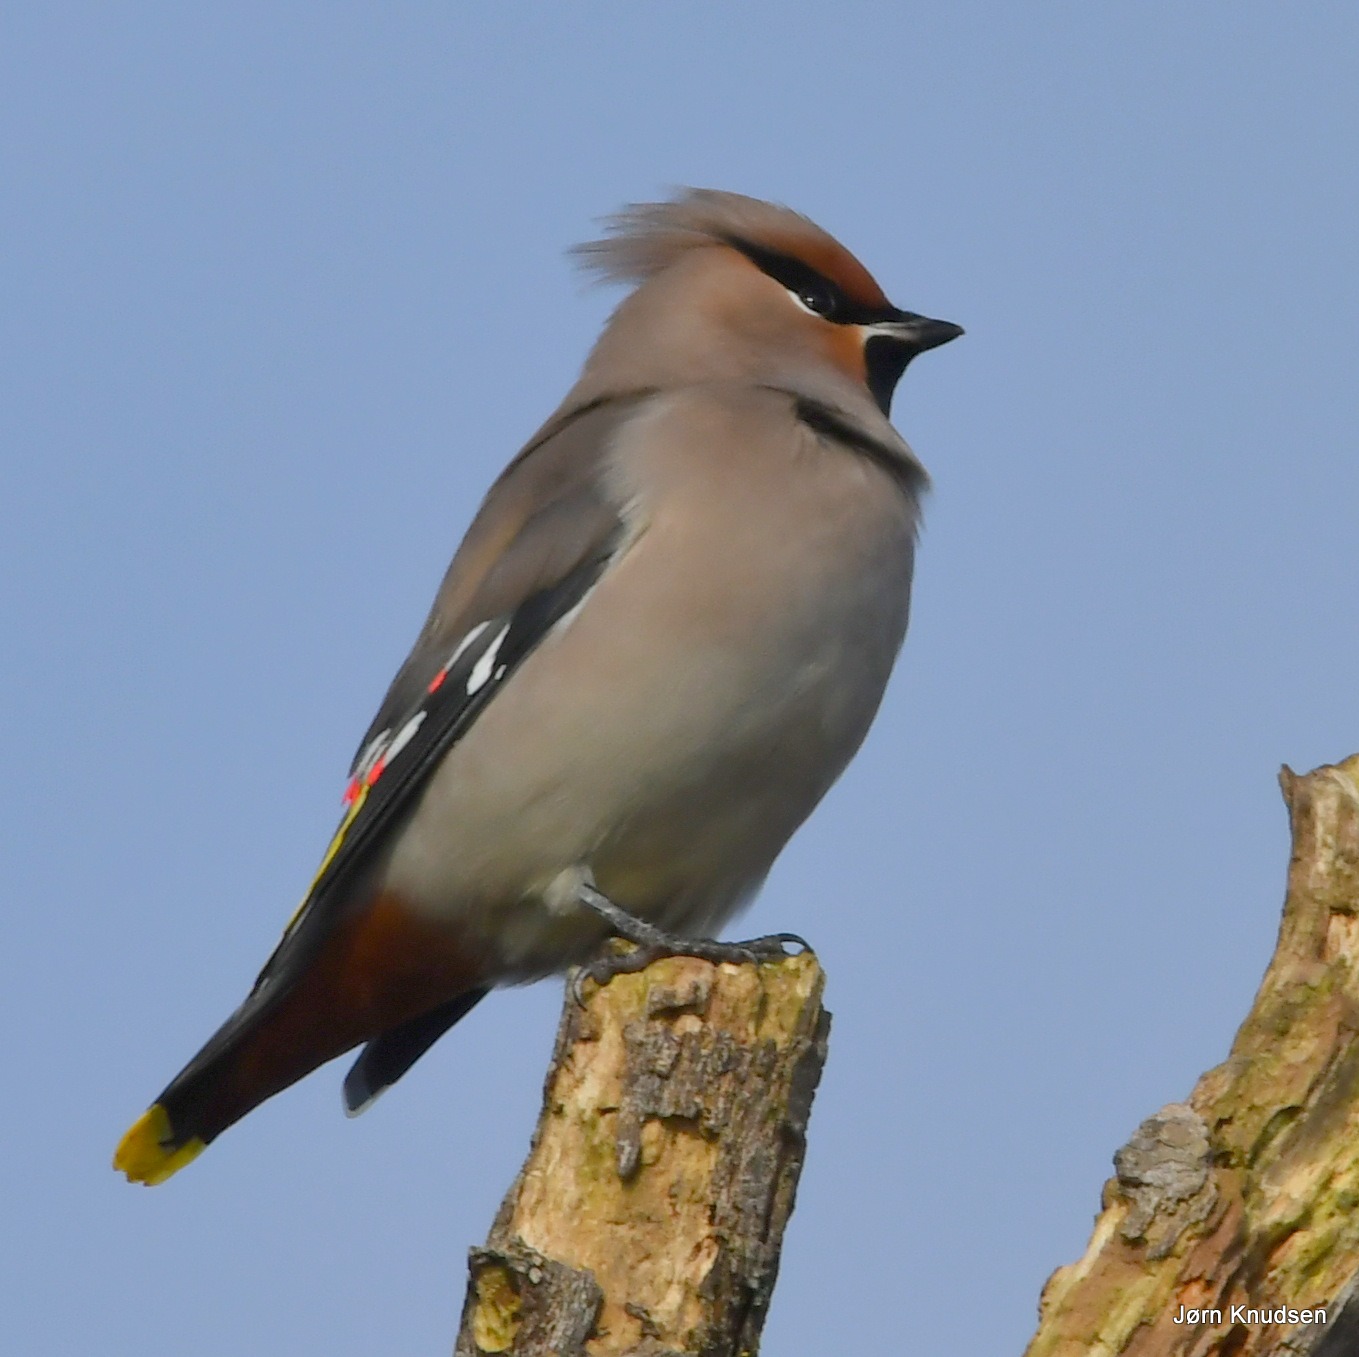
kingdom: Animalia
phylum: Chordata
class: Aves
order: Passeriformes
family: Bombycillidae
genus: Bombycilla
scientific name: Bombycilla garrulus
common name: Silkehale
